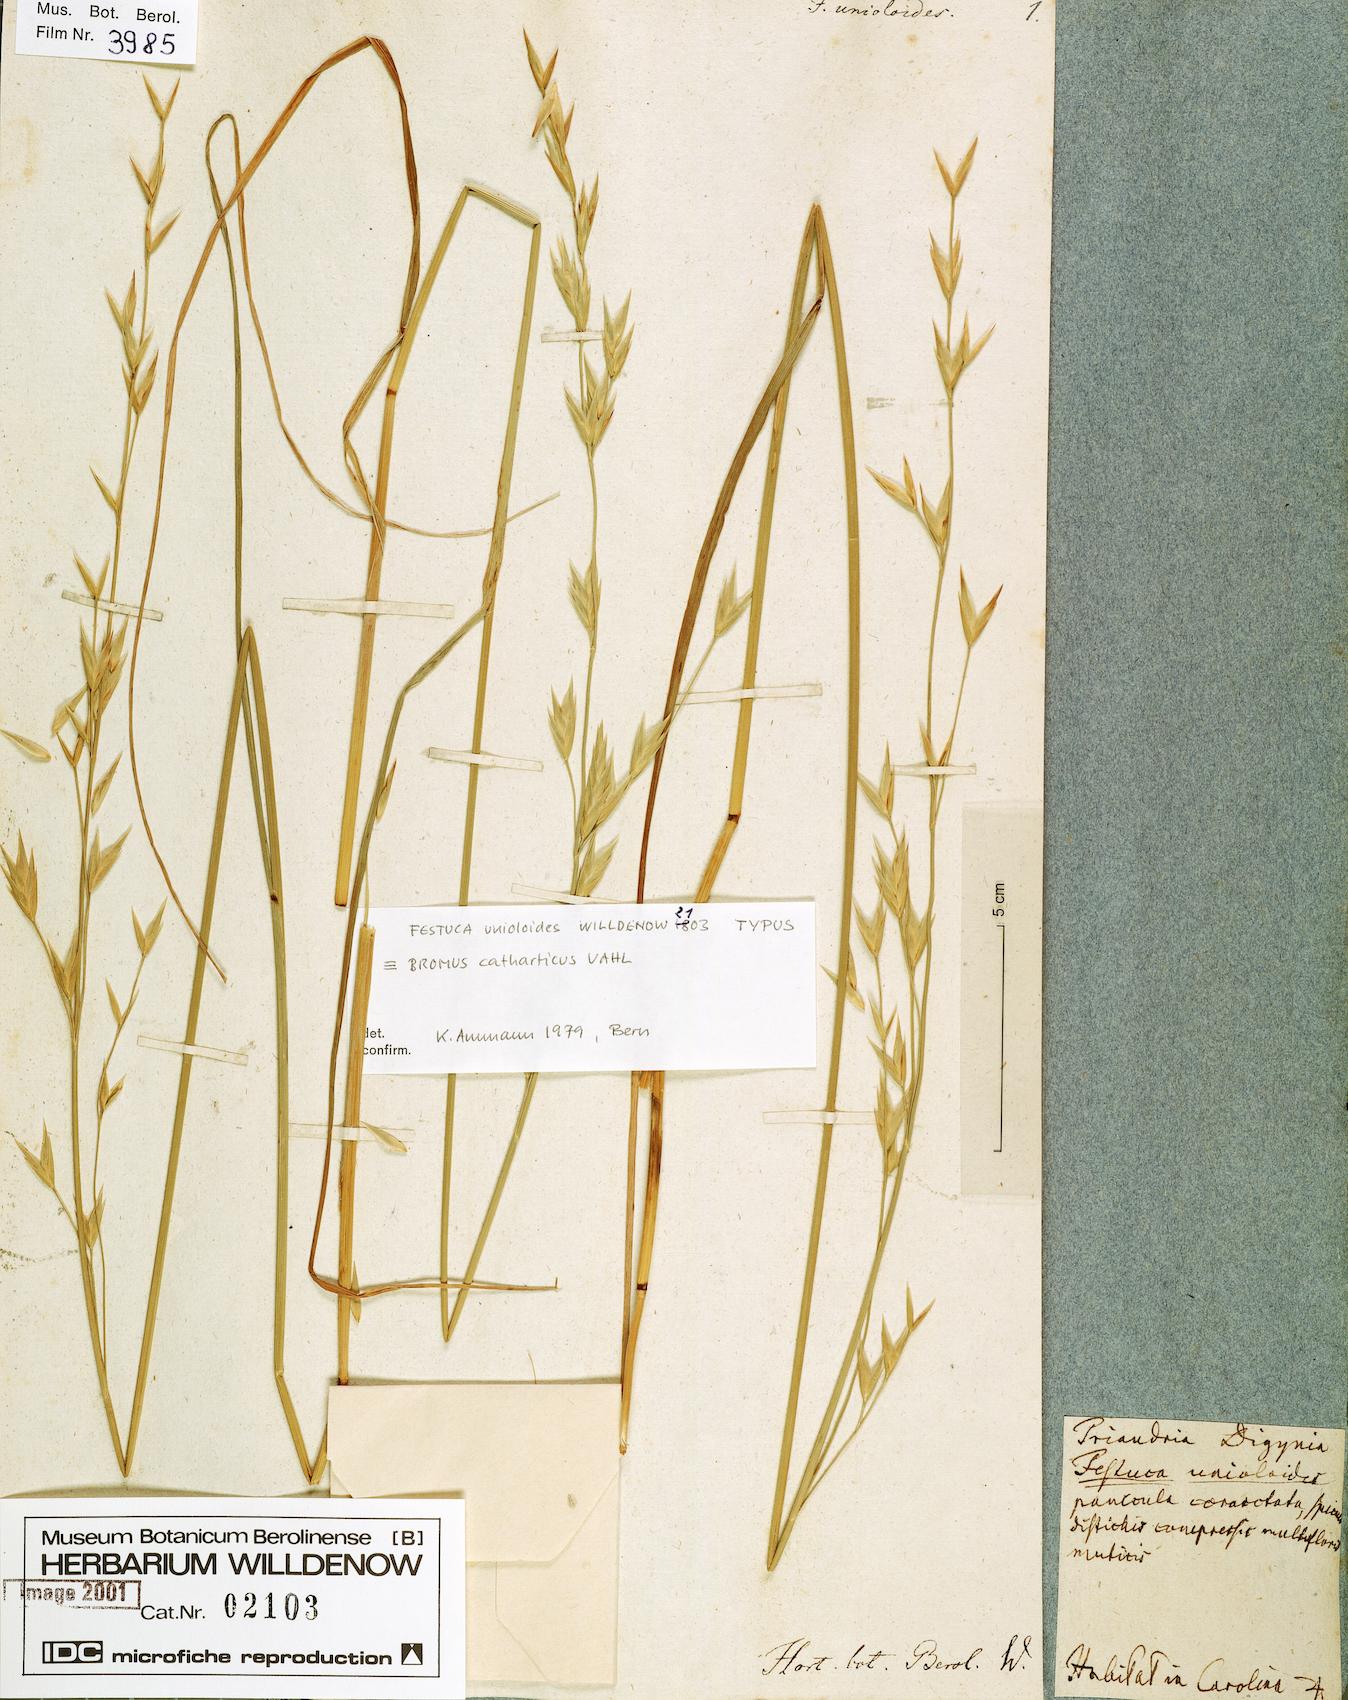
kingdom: Plantae
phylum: Tracheophyta
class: Liliopsida
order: Poales
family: Poaceae
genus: Bromus
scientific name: Bromus catharticus
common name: Rescuegrass
